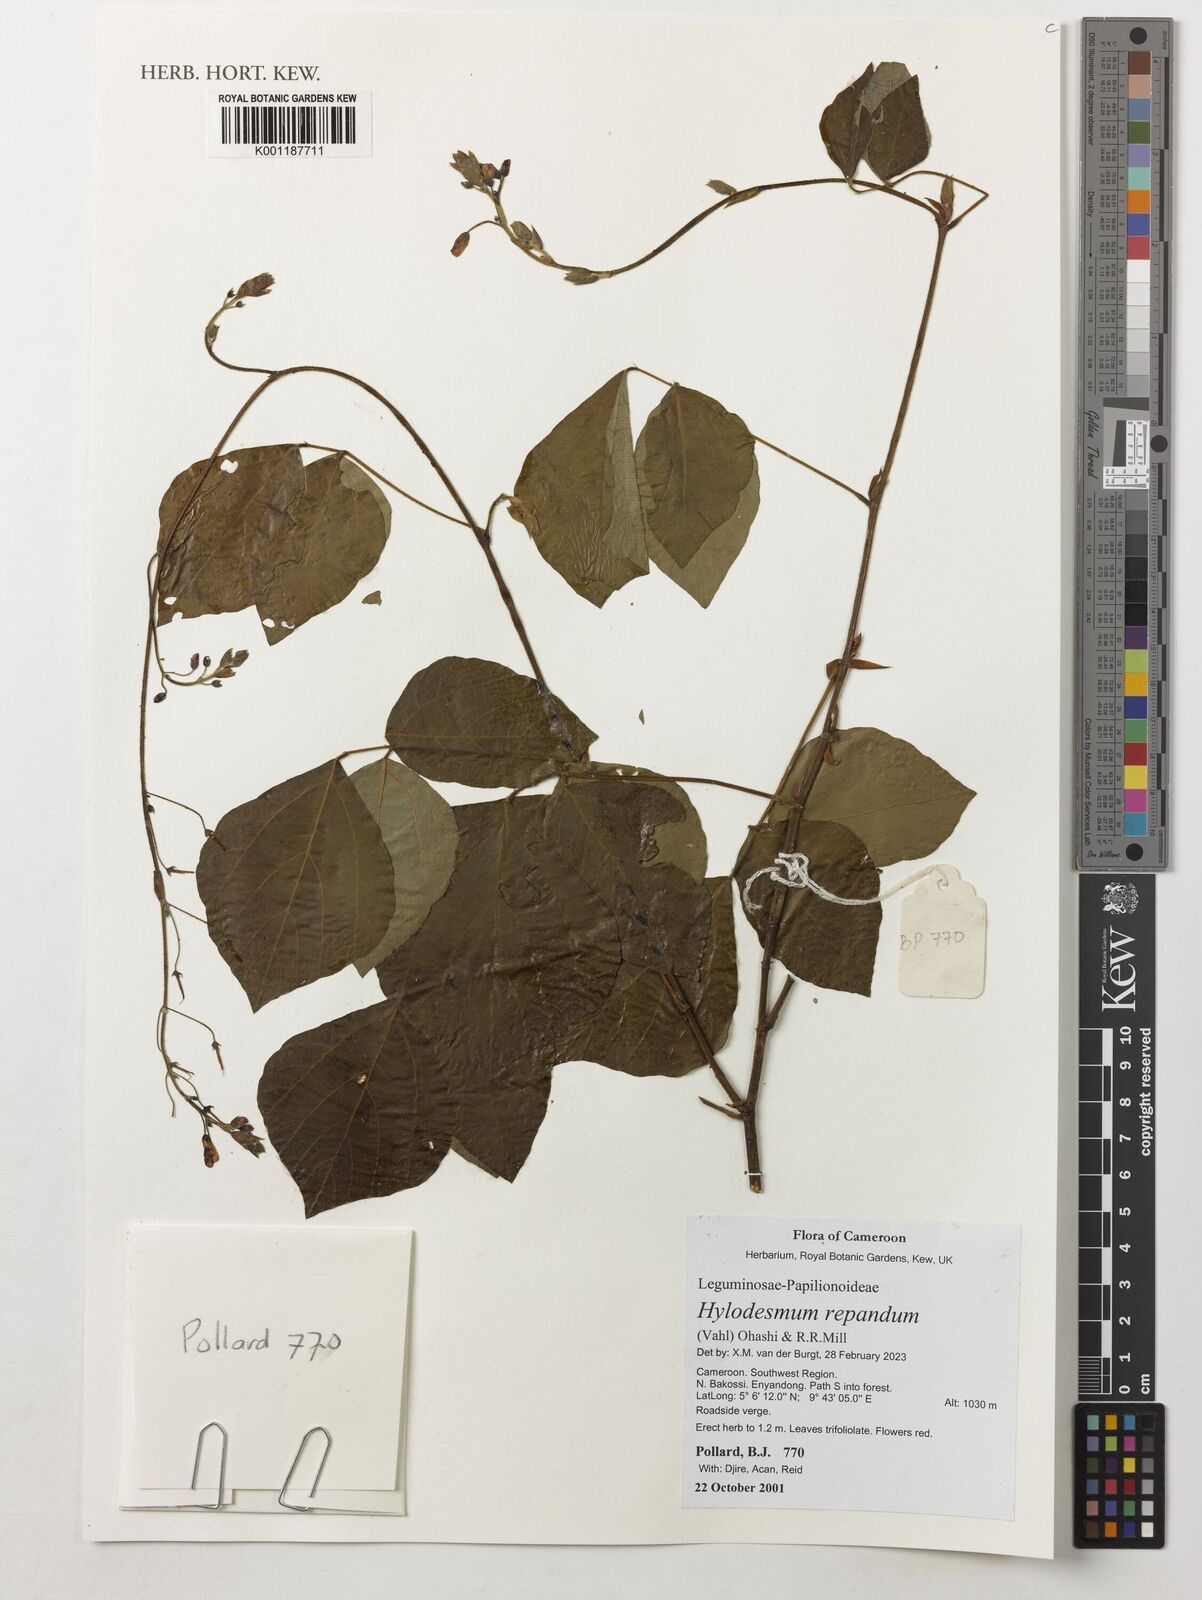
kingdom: Plantae
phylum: Tracheophyta
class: Magnoliopsida
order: Fabales
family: Fabaceae
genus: Hylodesmum
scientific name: Hylodesmum repandum
